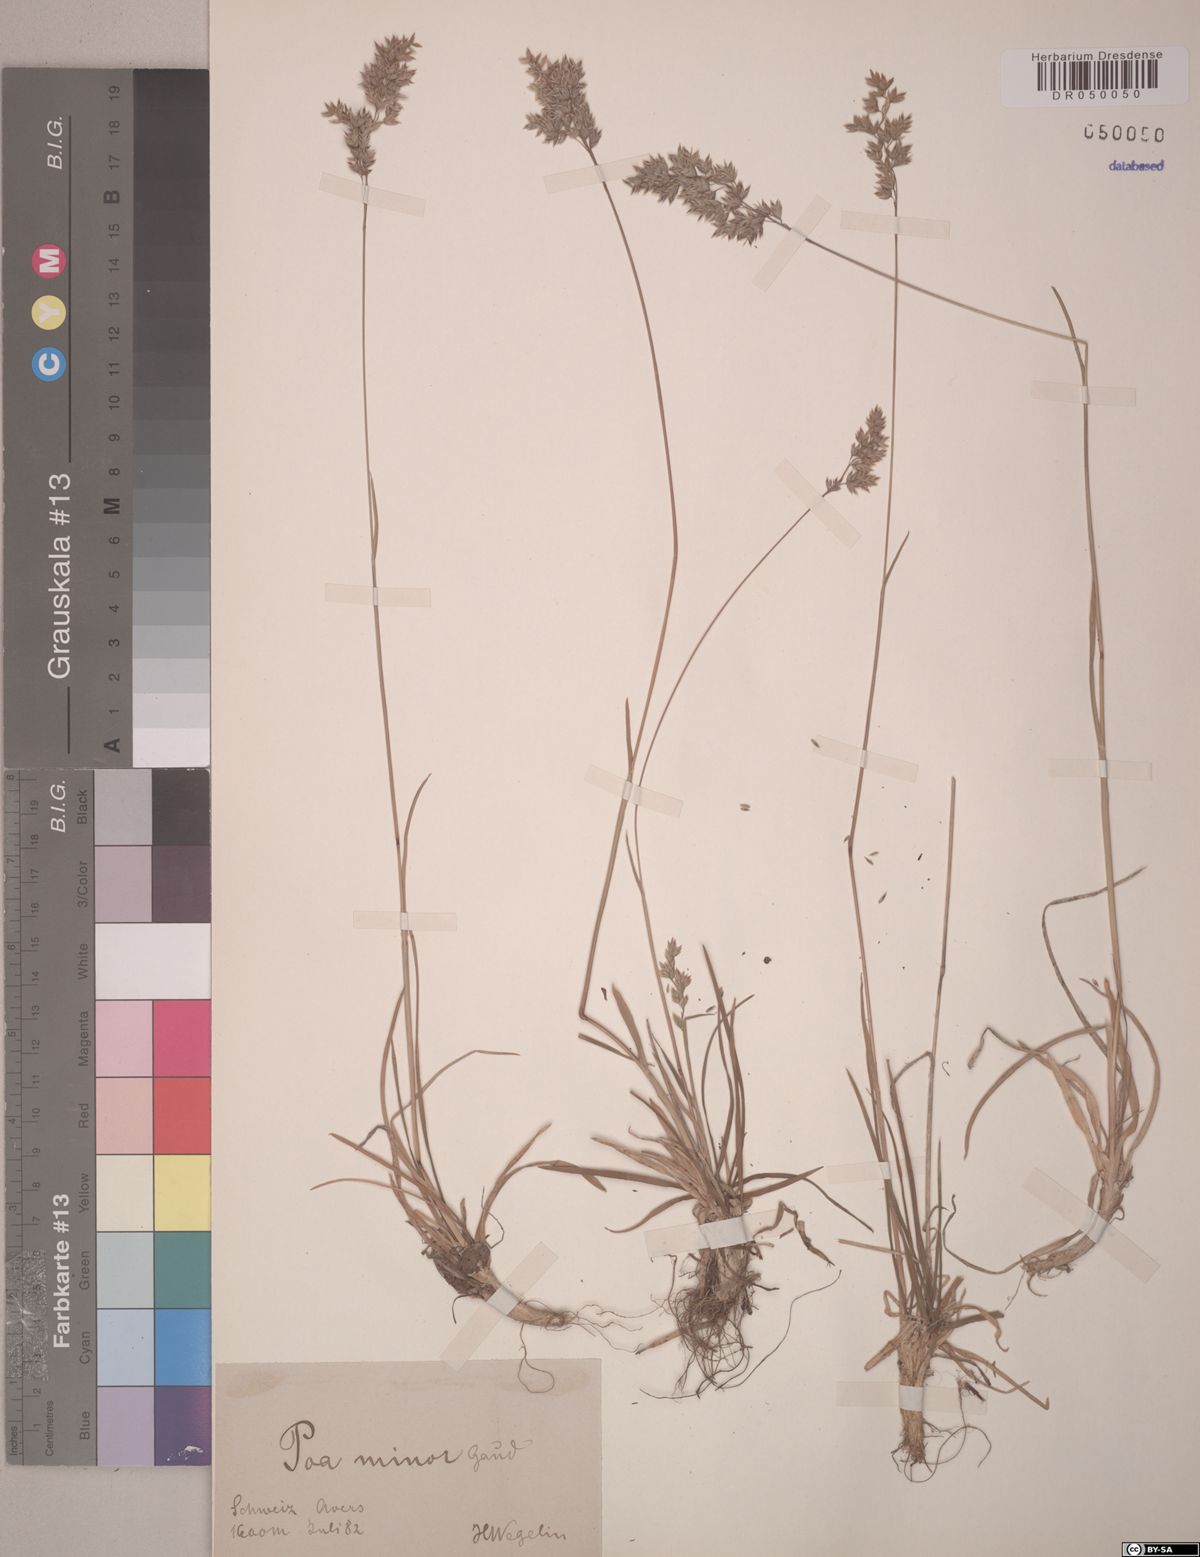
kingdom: Plantae
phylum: Tracheophyta
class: Liliopsida
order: Poales
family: Poaceae
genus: Poa
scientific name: Poa minor
